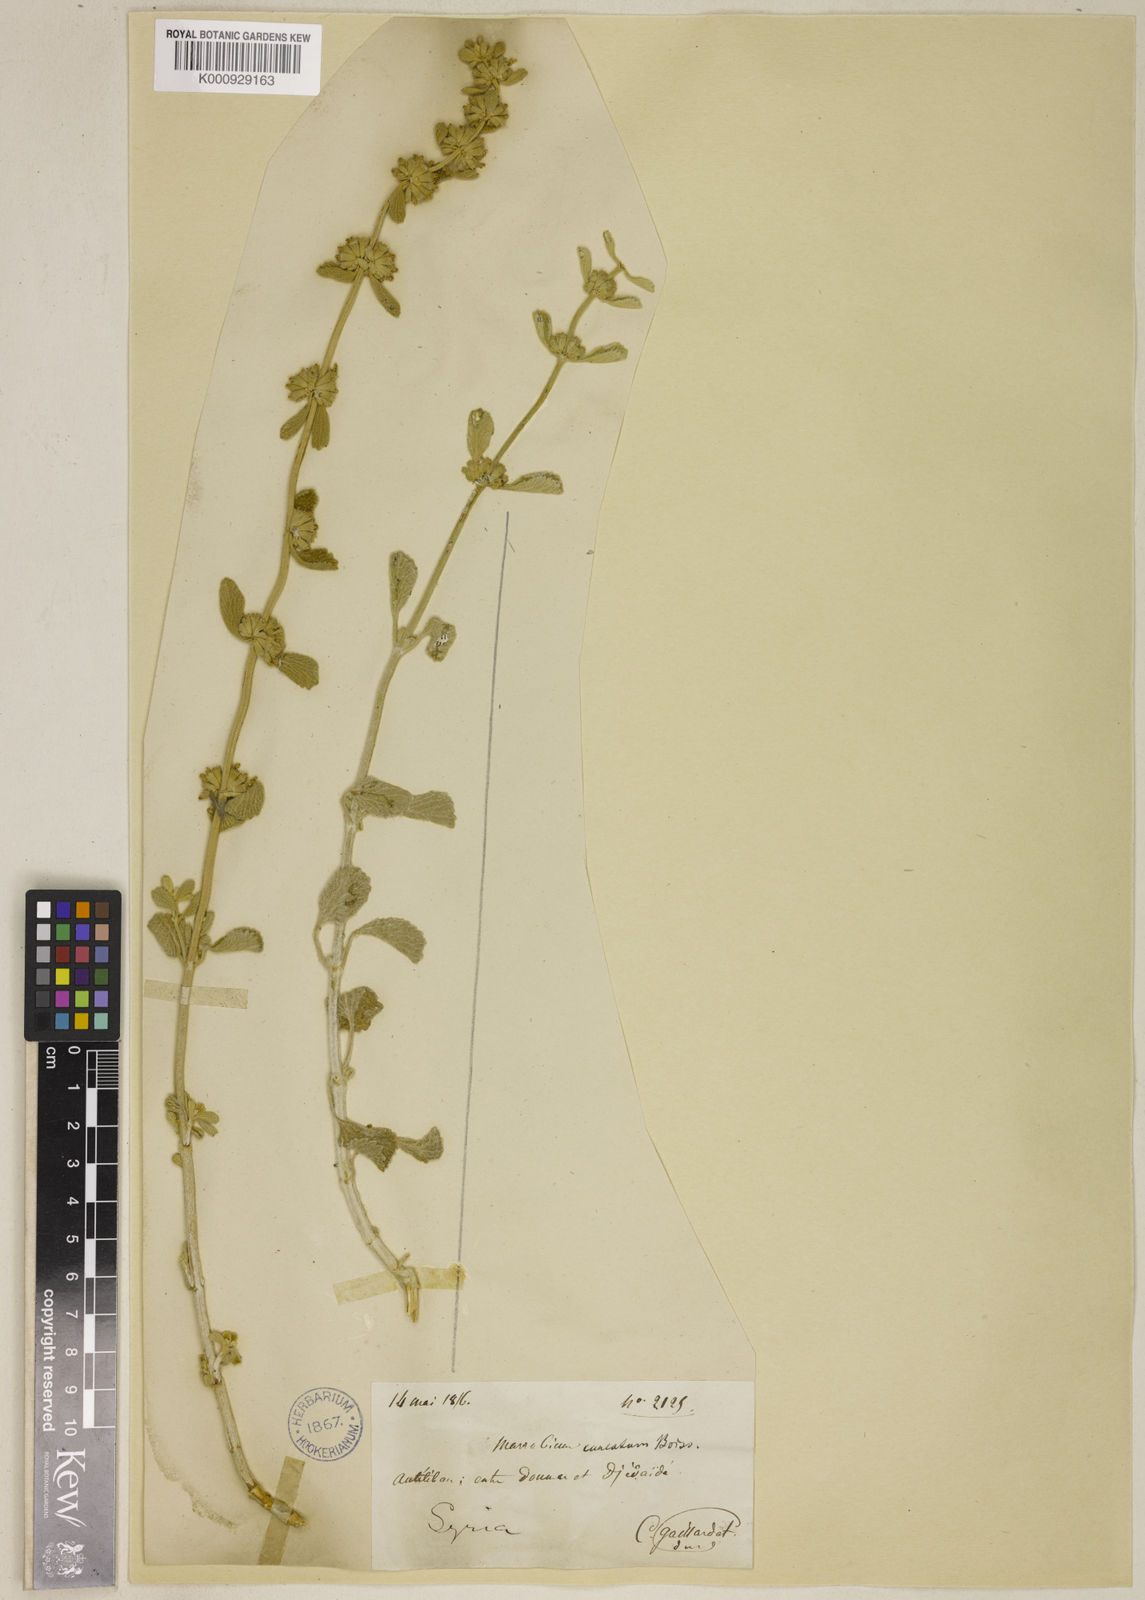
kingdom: Plantae
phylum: Tracheophyta
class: Magnoliopsida
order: Lamiales
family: Lamiaceae
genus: Marrubium
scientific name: Marrubium cuneatum
